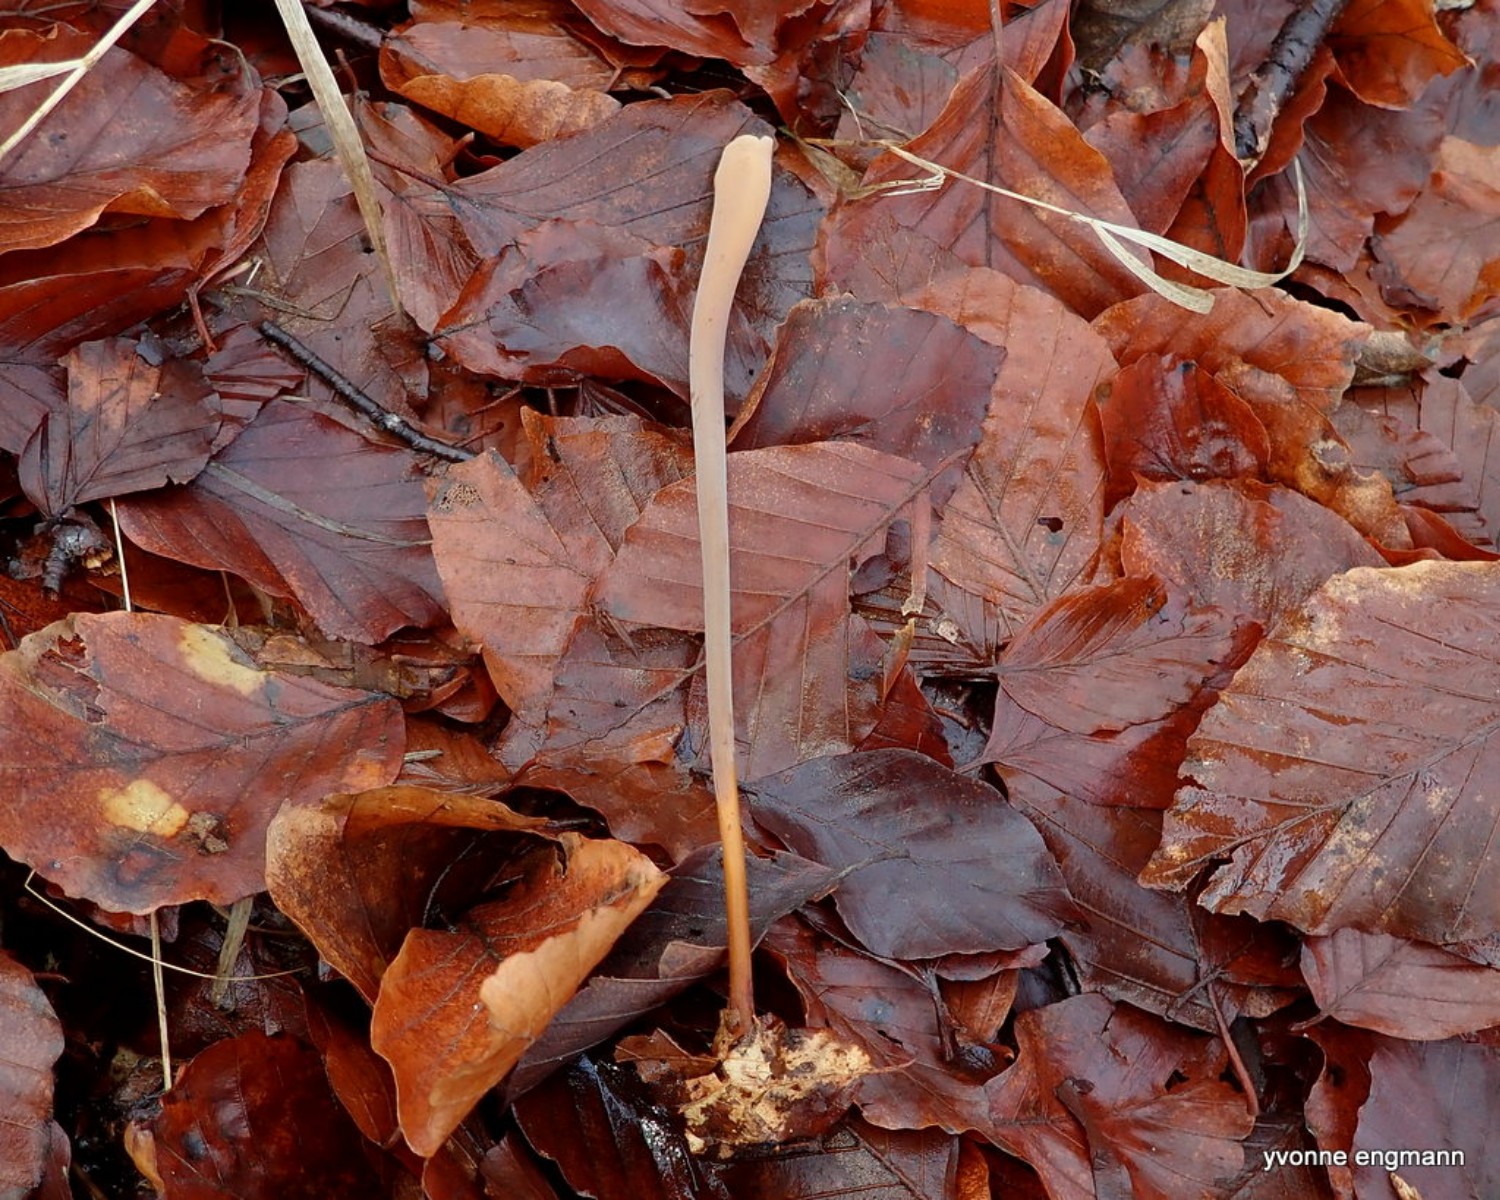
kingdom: Fungi
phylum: Basidiomycota
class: Agaricomycetes
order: Agaricales
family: Typhulaceae
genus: Typhula
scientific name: Typhula fistulosa
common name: pibet rørkølle
